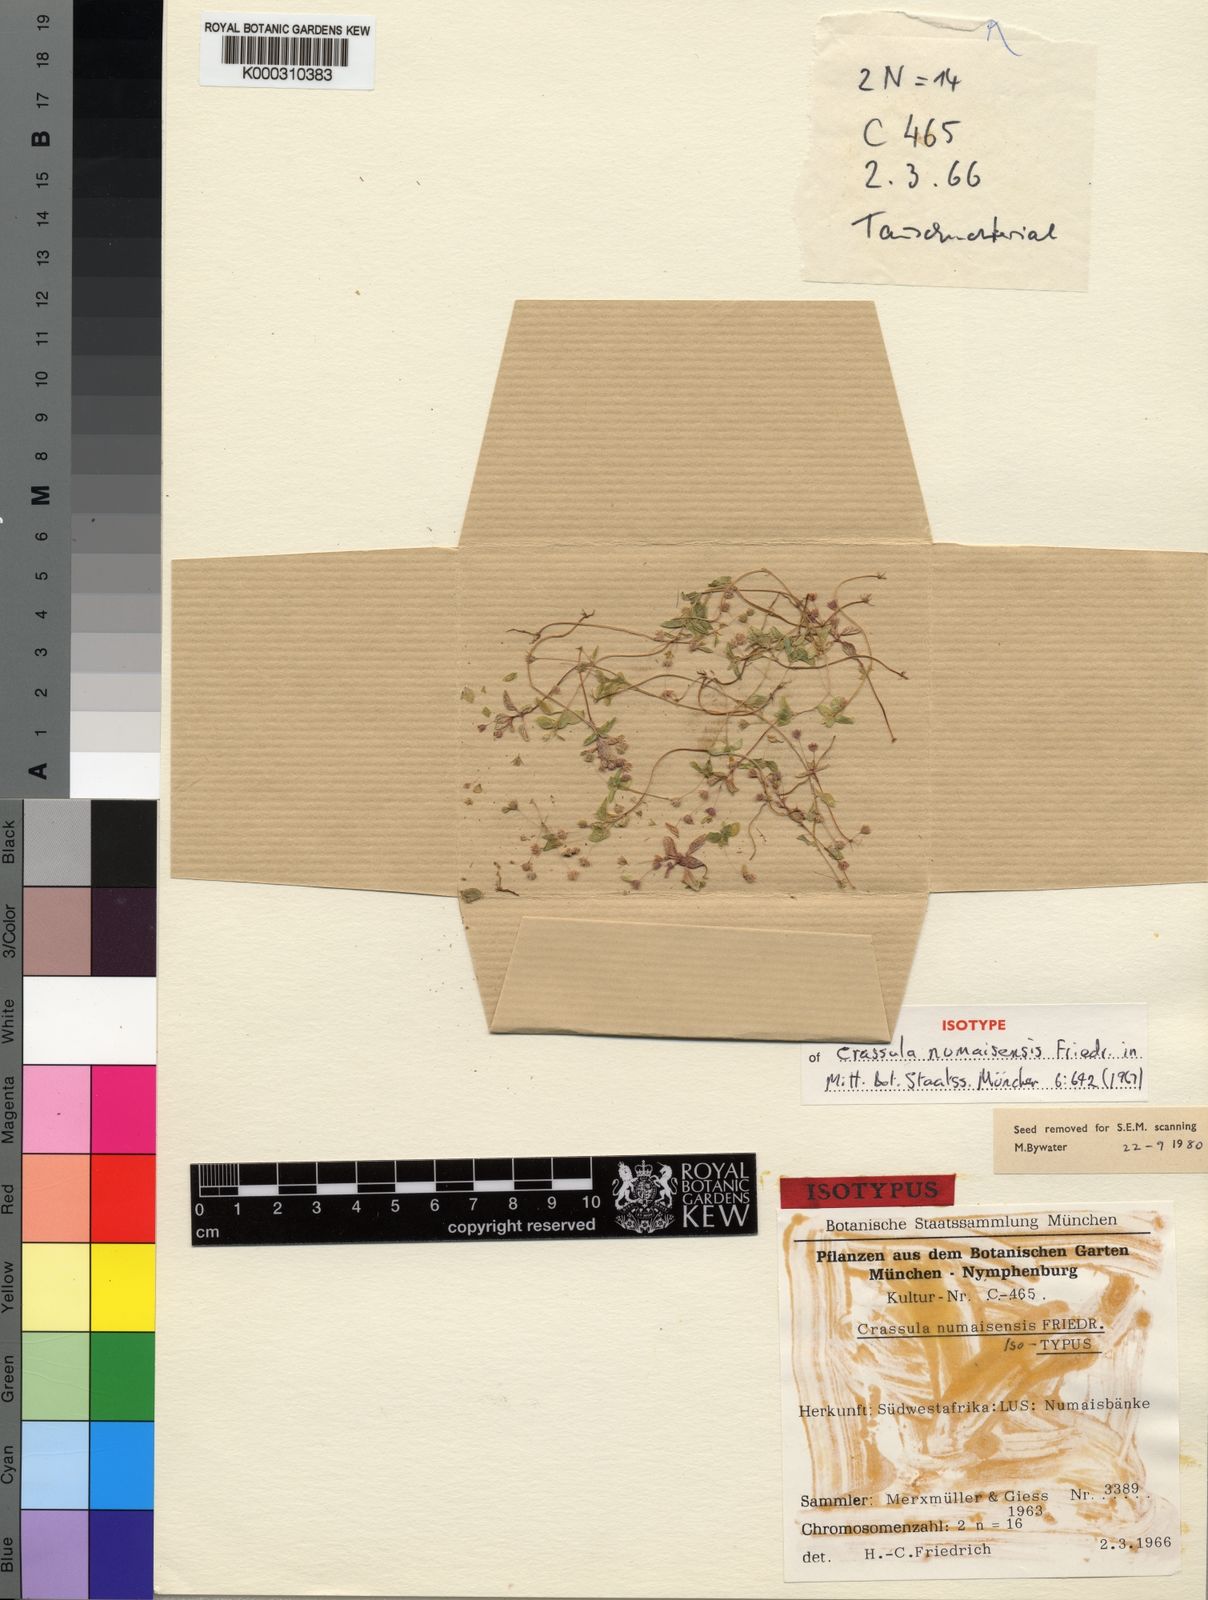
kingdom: Plantae
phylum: Tracheophyta
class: Magnoliopsida
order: Saxifragales
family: Crassulaceae
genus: Crassula
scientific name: Crassula numaisensis
